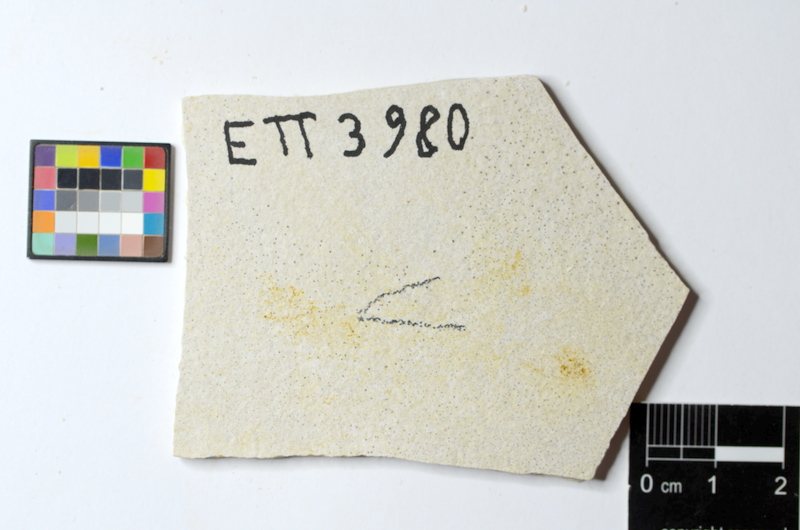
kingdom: Animalia
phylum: Chordata
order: Salmoniformes
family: Orthogonikleithridae
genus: Orthogonikleithrus
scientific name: Orthogonikleithrus hoelli
